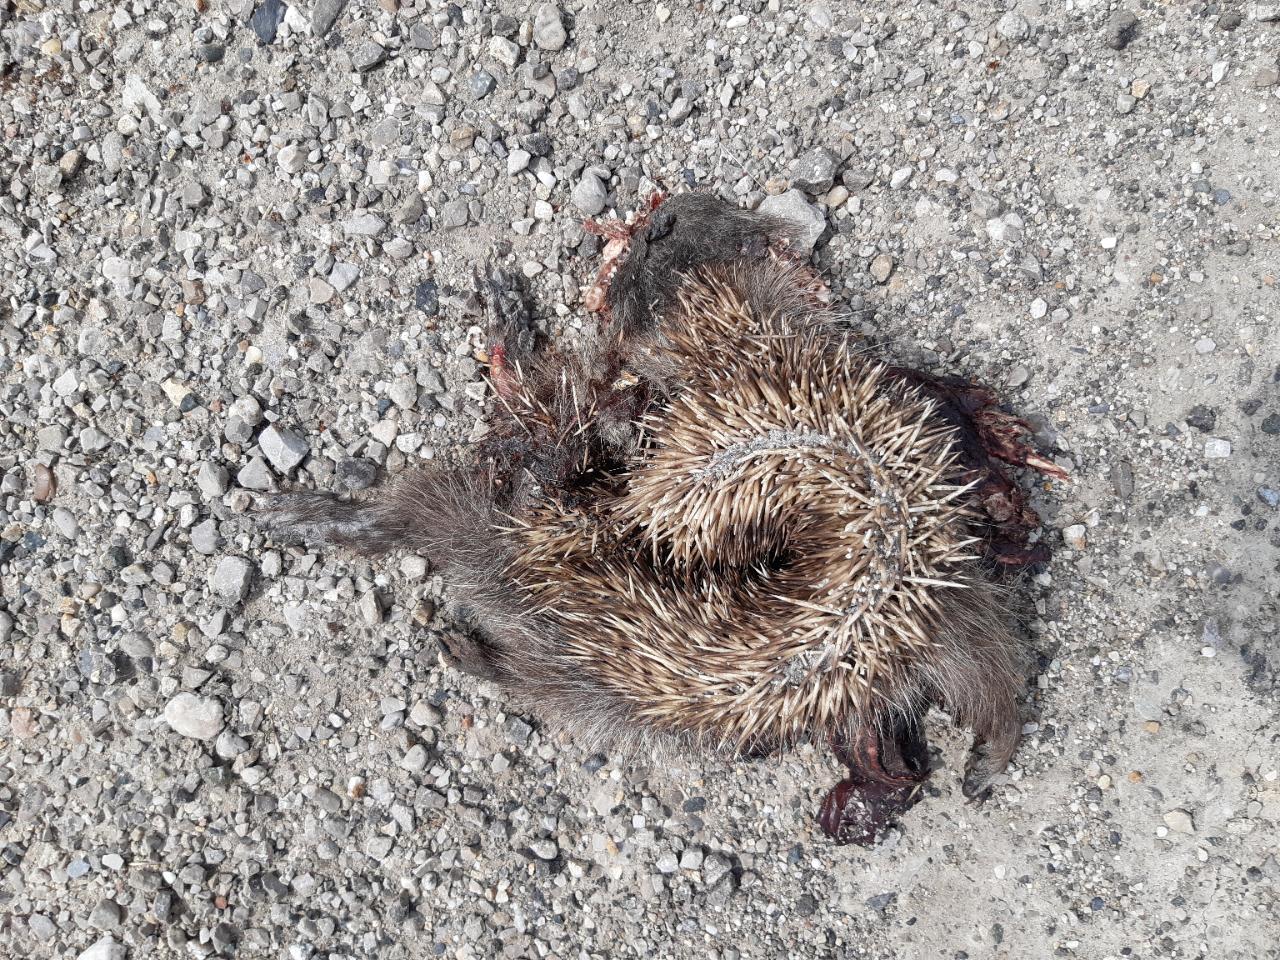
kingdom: Animalia
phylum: Chordata
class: Mammalia
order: Erinaceomorpha
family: Erinaceidae
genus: Erinaceus
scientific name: Erinaceus
